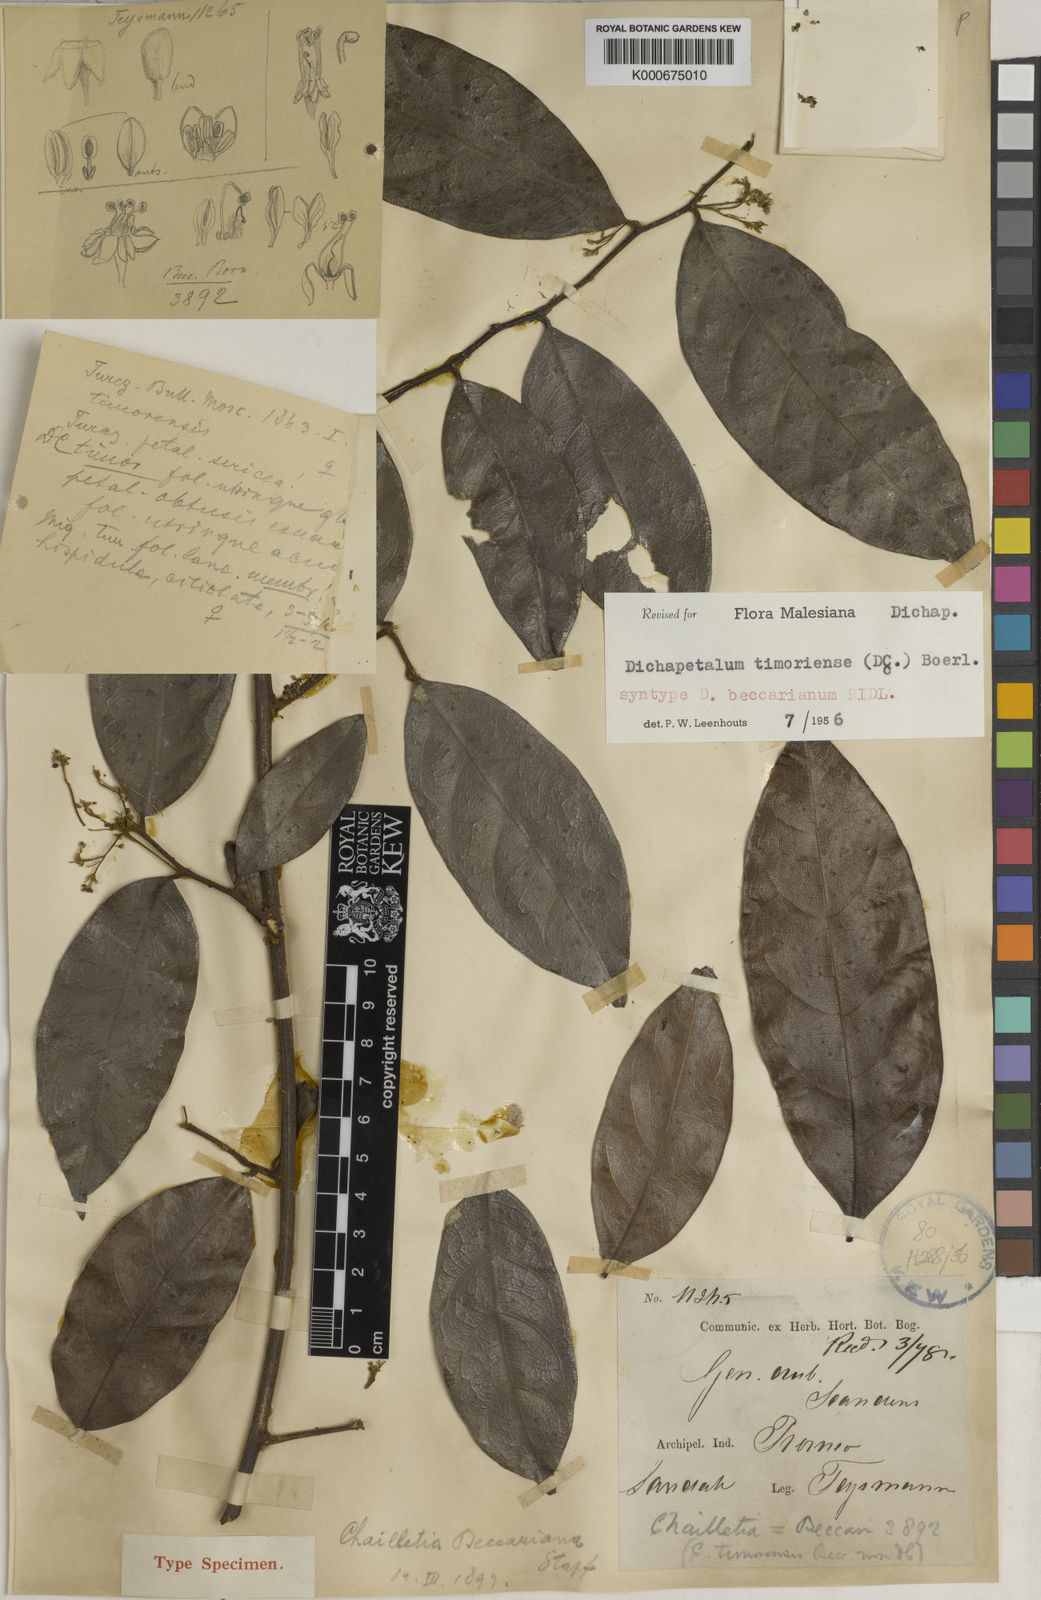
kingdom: Plantae
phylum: Tracheophyta
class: Magnoliopsida
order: Malpighiales
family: Dichapetalaceae
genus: Dichapetalum
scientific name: Dichapetalum timoriense
